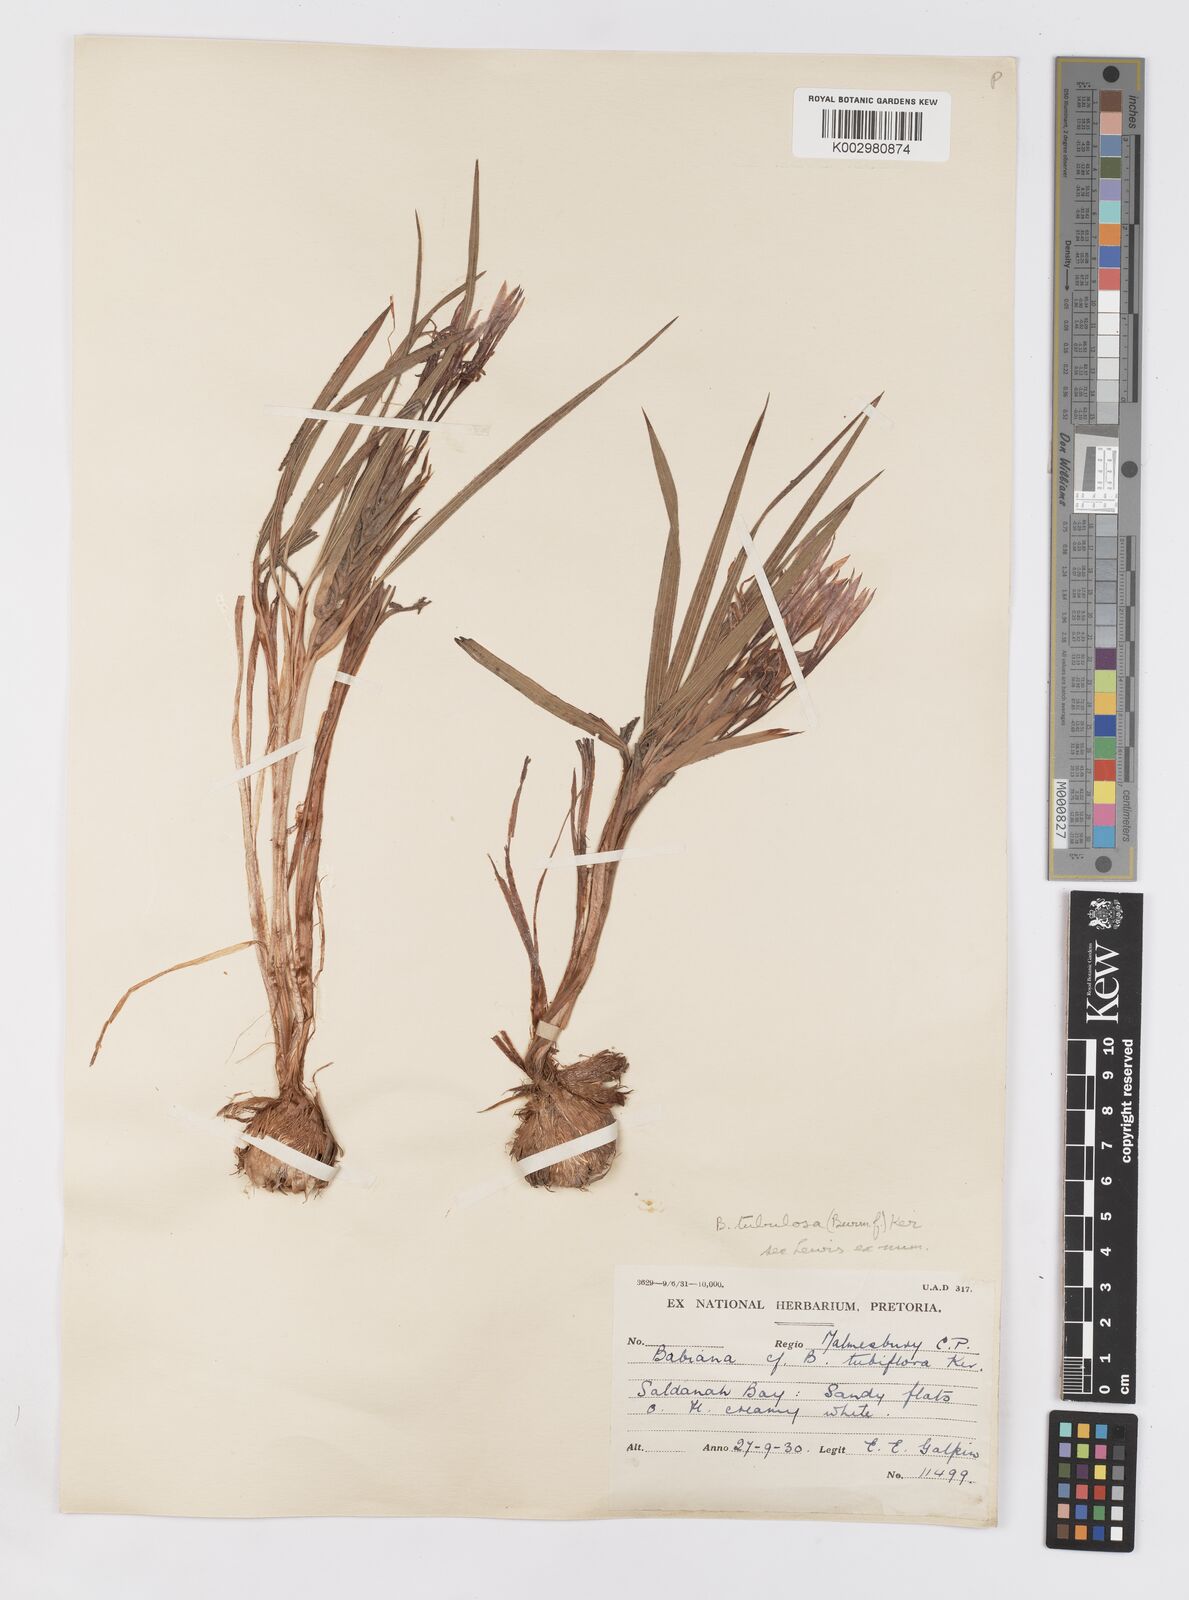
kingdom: Plantae
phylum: Tracheophyta
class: Liliopsida
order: Asparagales
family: Iridaceae
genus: Babiana
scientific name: Babiana tubulosa
